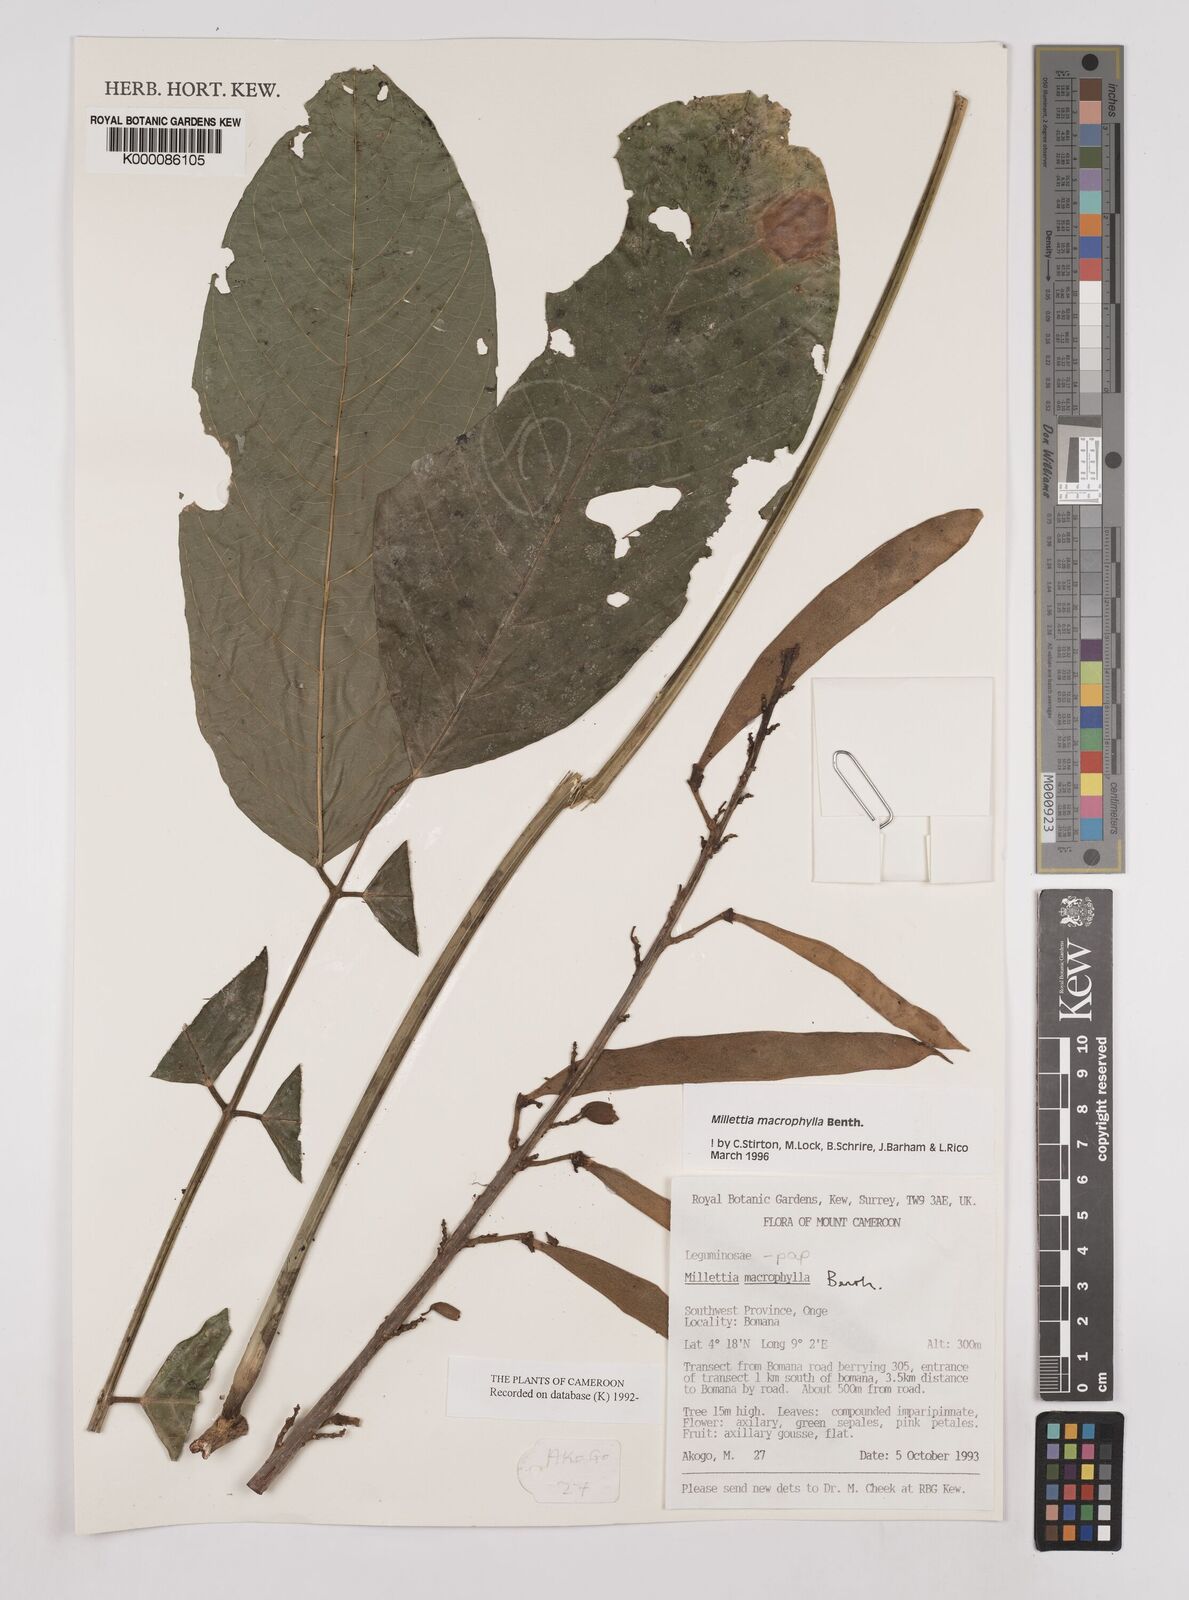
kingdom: Plantae
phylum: Tracheophyta
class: Magnoliopsida
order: Fabales
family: Fabaceae
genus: Millettia
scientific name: Millettia macrophylla
